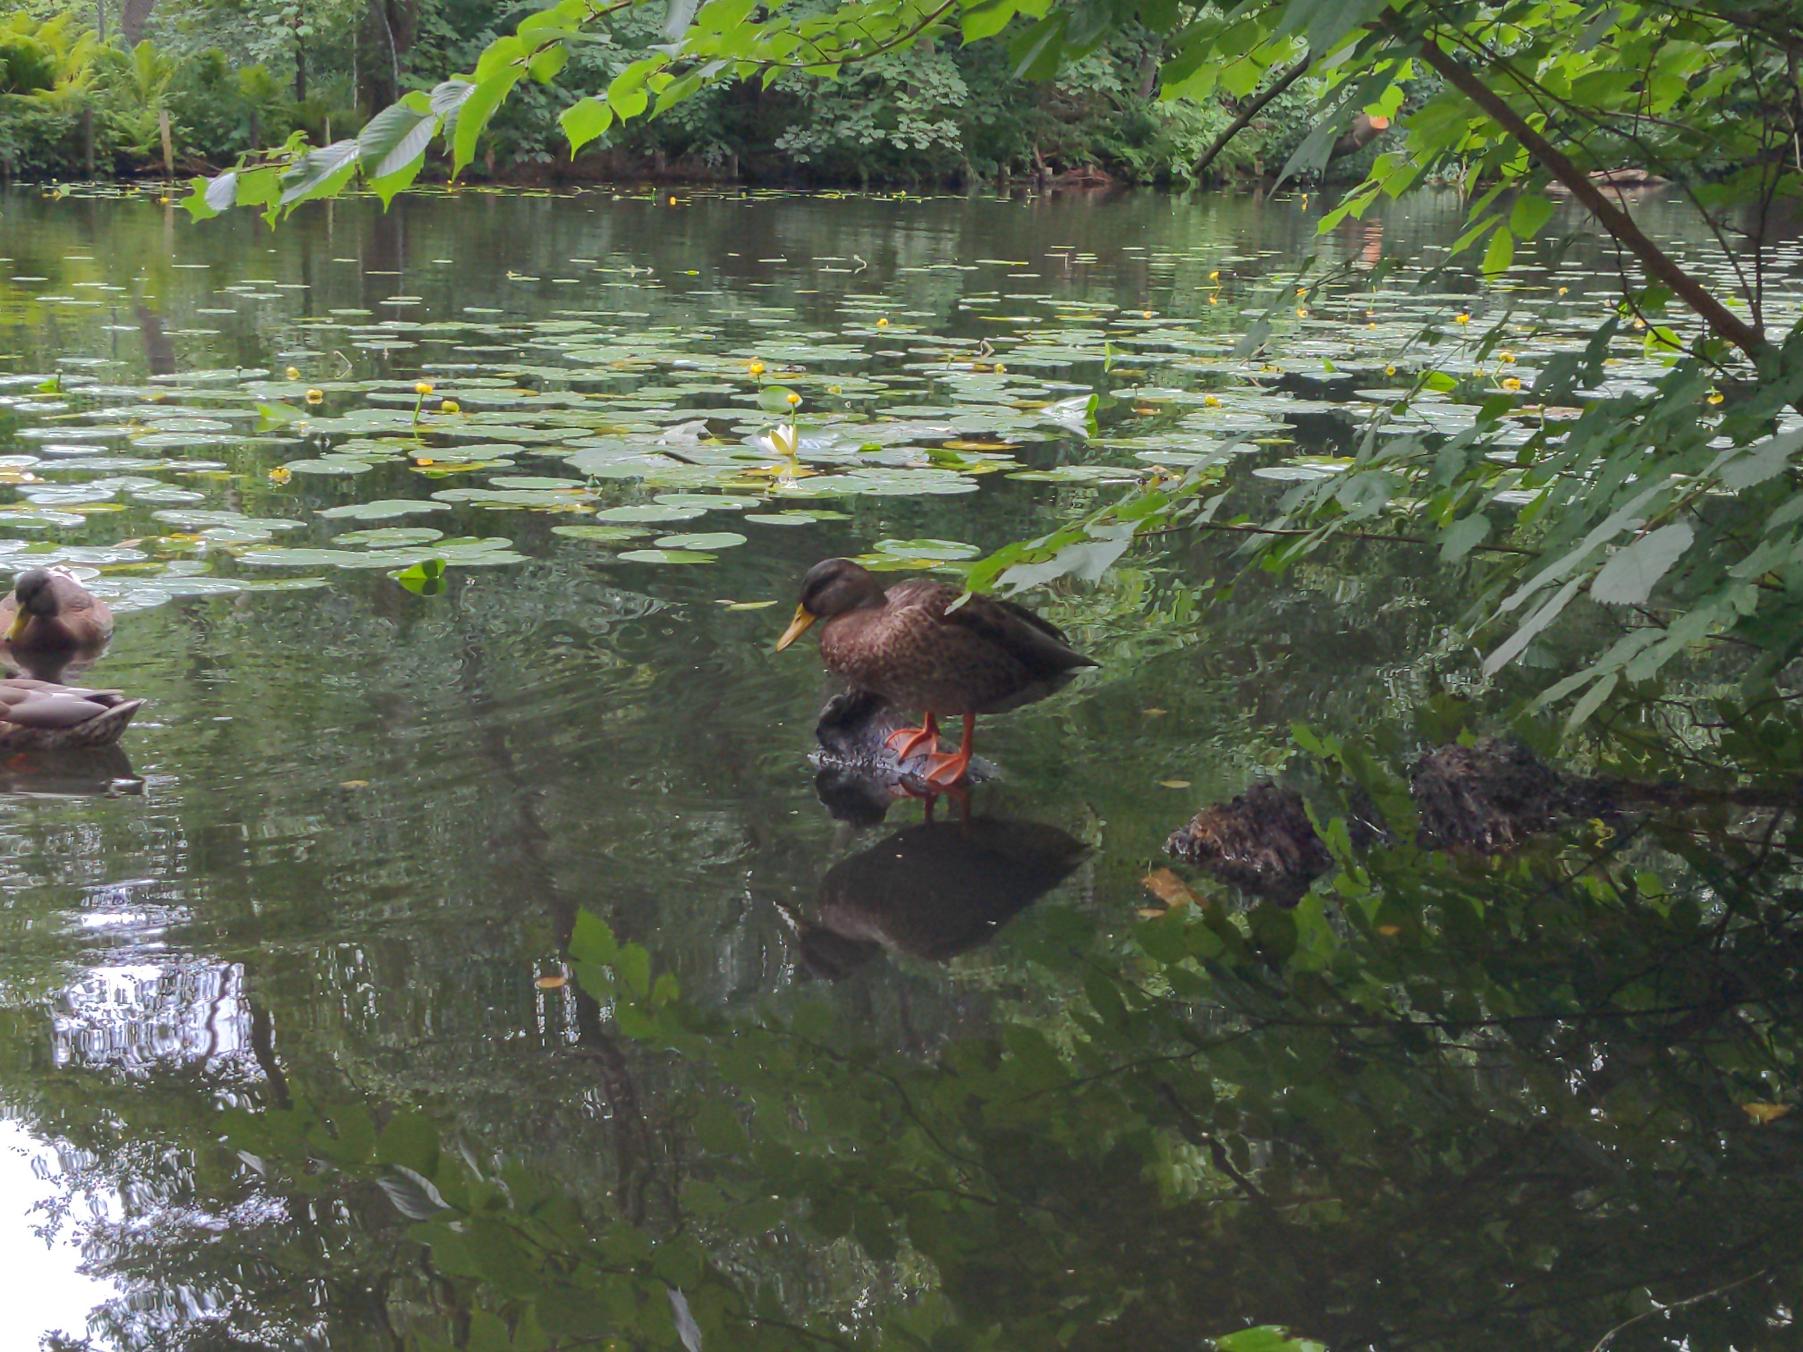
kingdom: Animalia
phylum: Chordata
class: Aves
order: Anseriformes
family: Anatidae
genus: Anas
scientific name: Anas platyrhynchos
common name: Gråand
